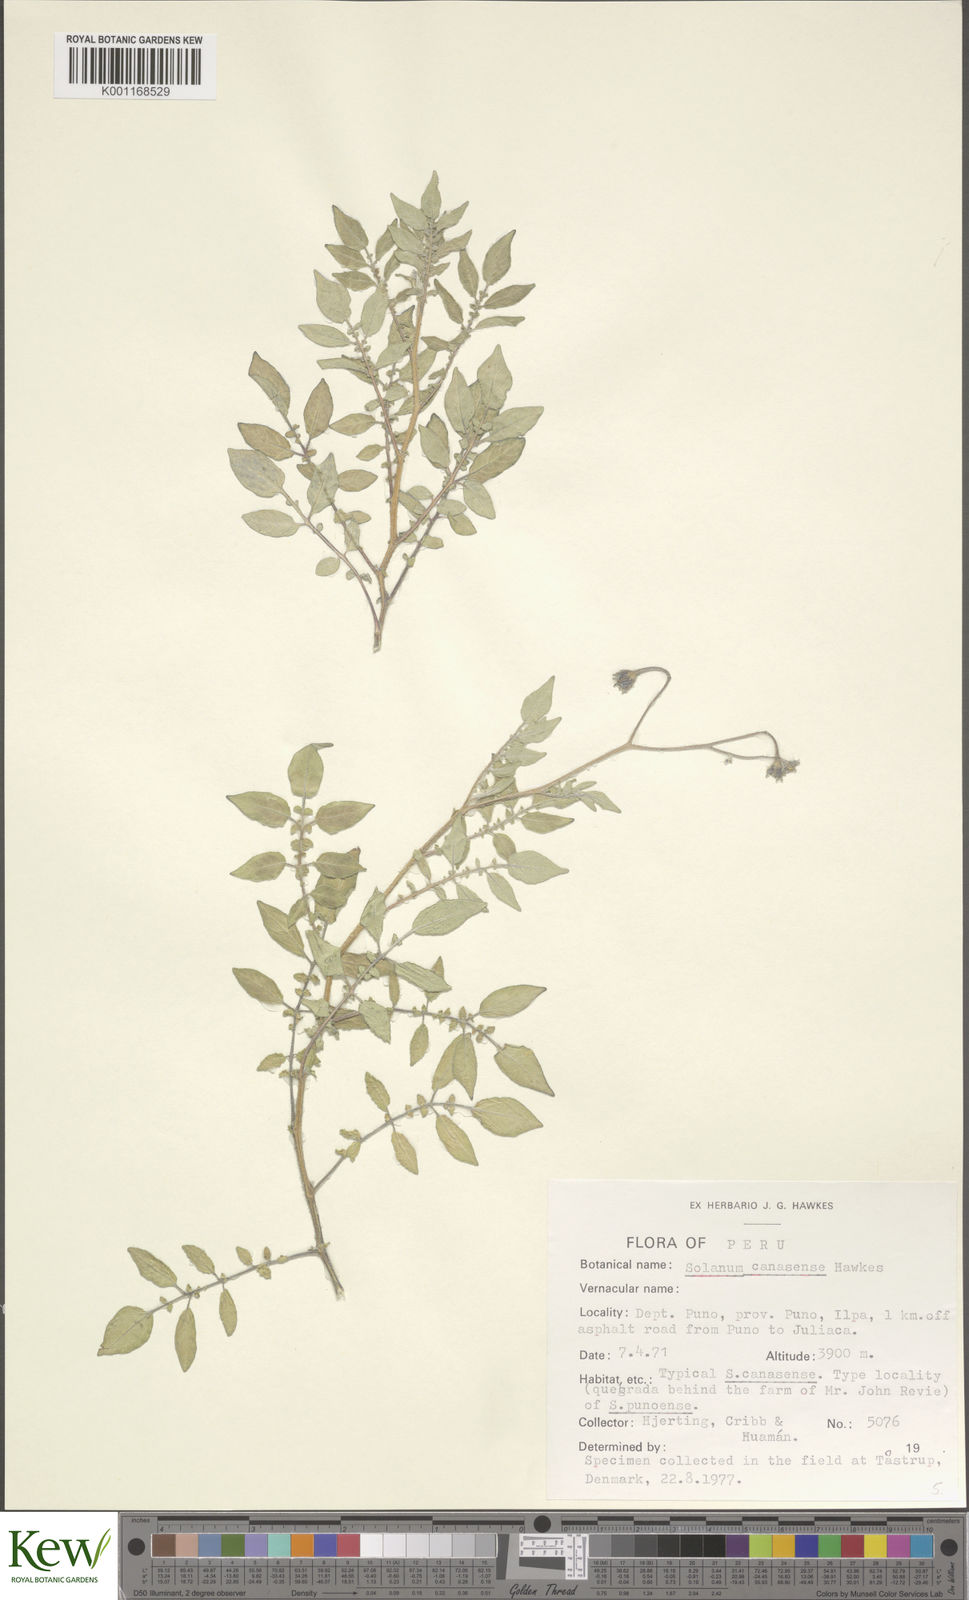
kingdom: Plantae
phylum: Tracheophyta
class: Magnoliopsida
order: Solanales
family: Solanaceae
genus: Solanum
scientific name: Solanum candolleanum
